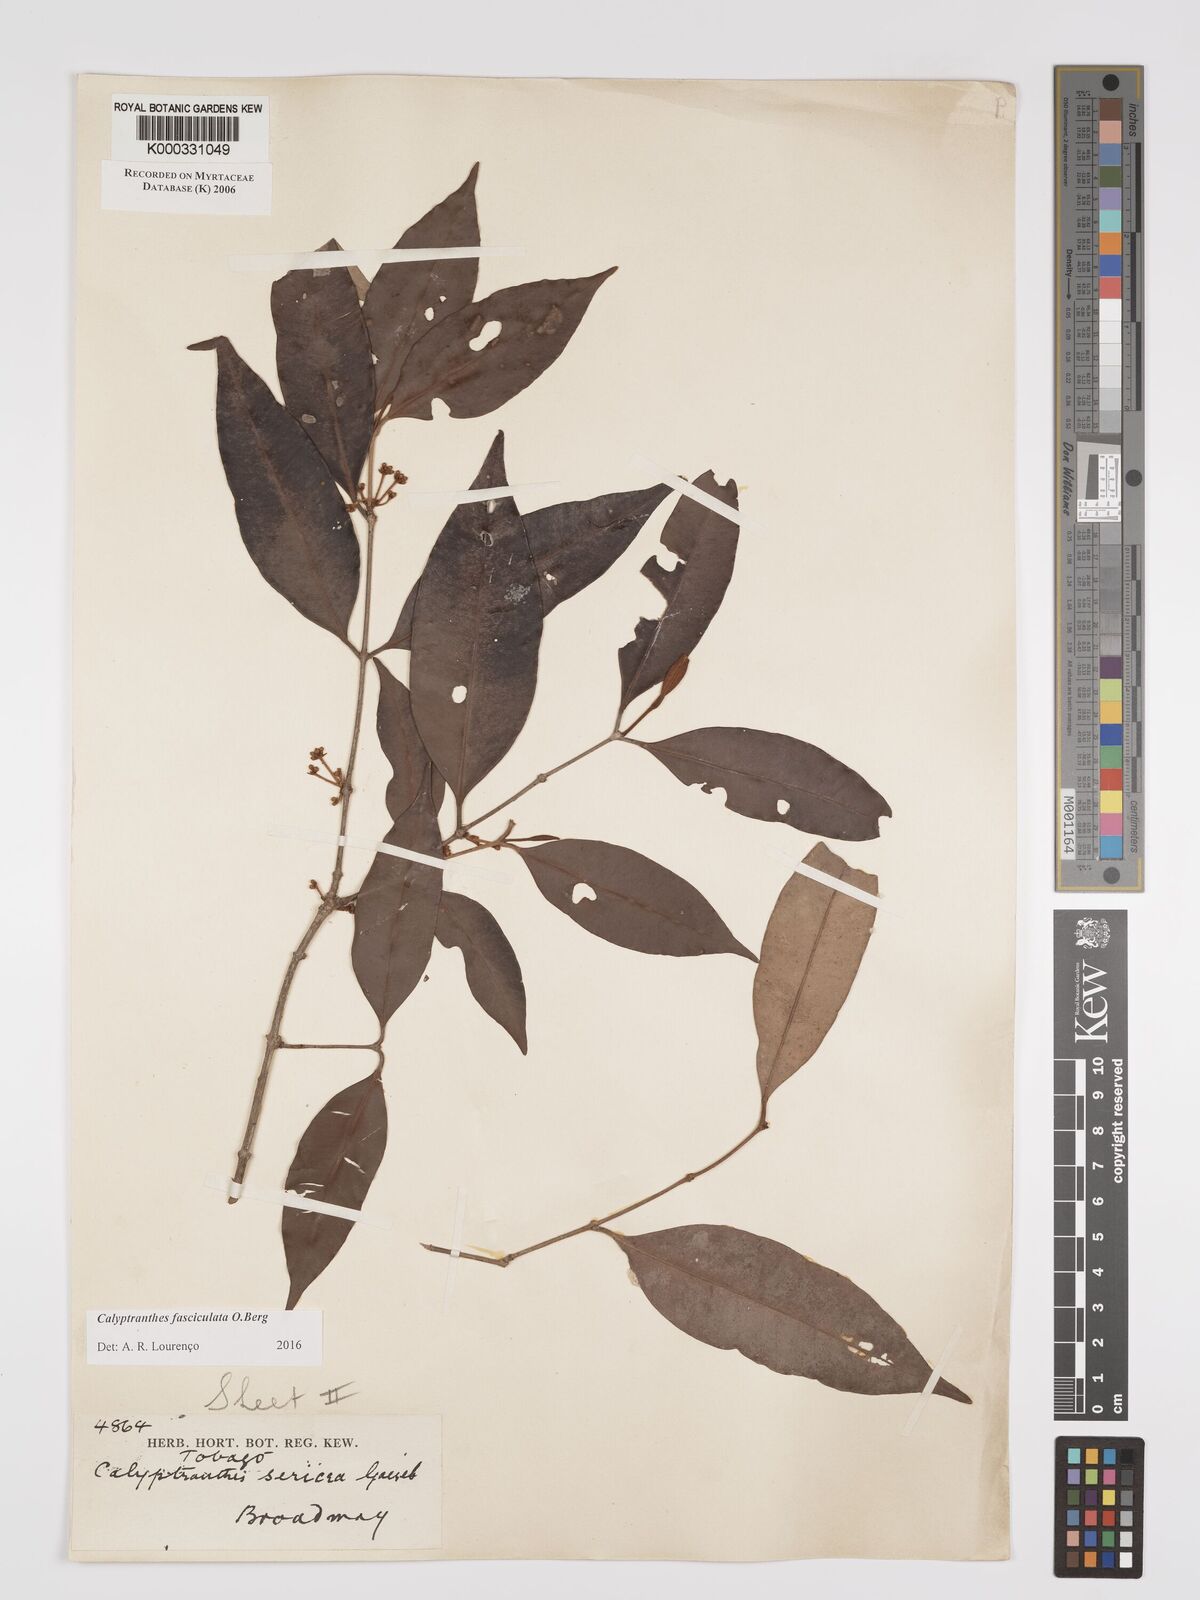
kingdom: Plantae
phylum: Tracheophyta
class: Magnoliopsida
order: Myrtales
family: Myrtaceae
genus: Myrcia
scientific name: Myrcia fasciculata
